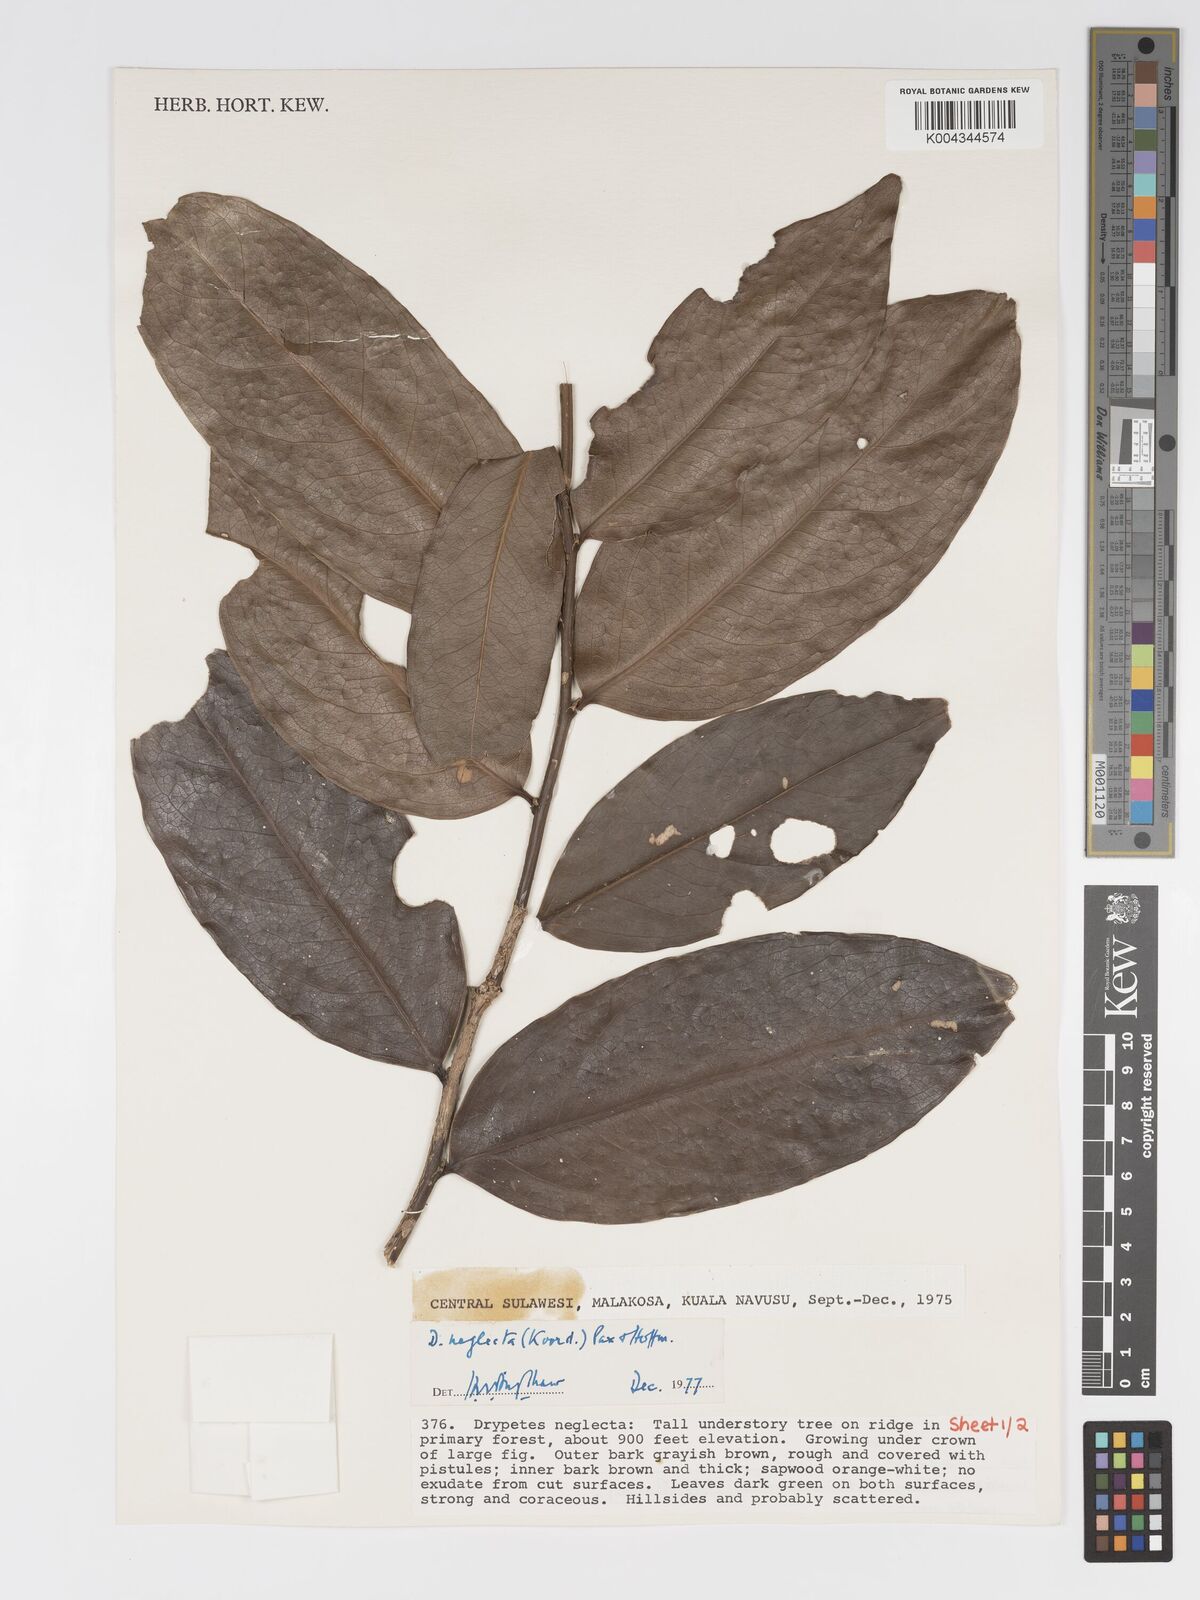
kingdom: Plantae
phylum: Tracheophyta
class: Magnoliopsida
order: Malpighiales
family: Putranjivaceae
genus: Drypetes
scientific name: Drypetes neglecta
